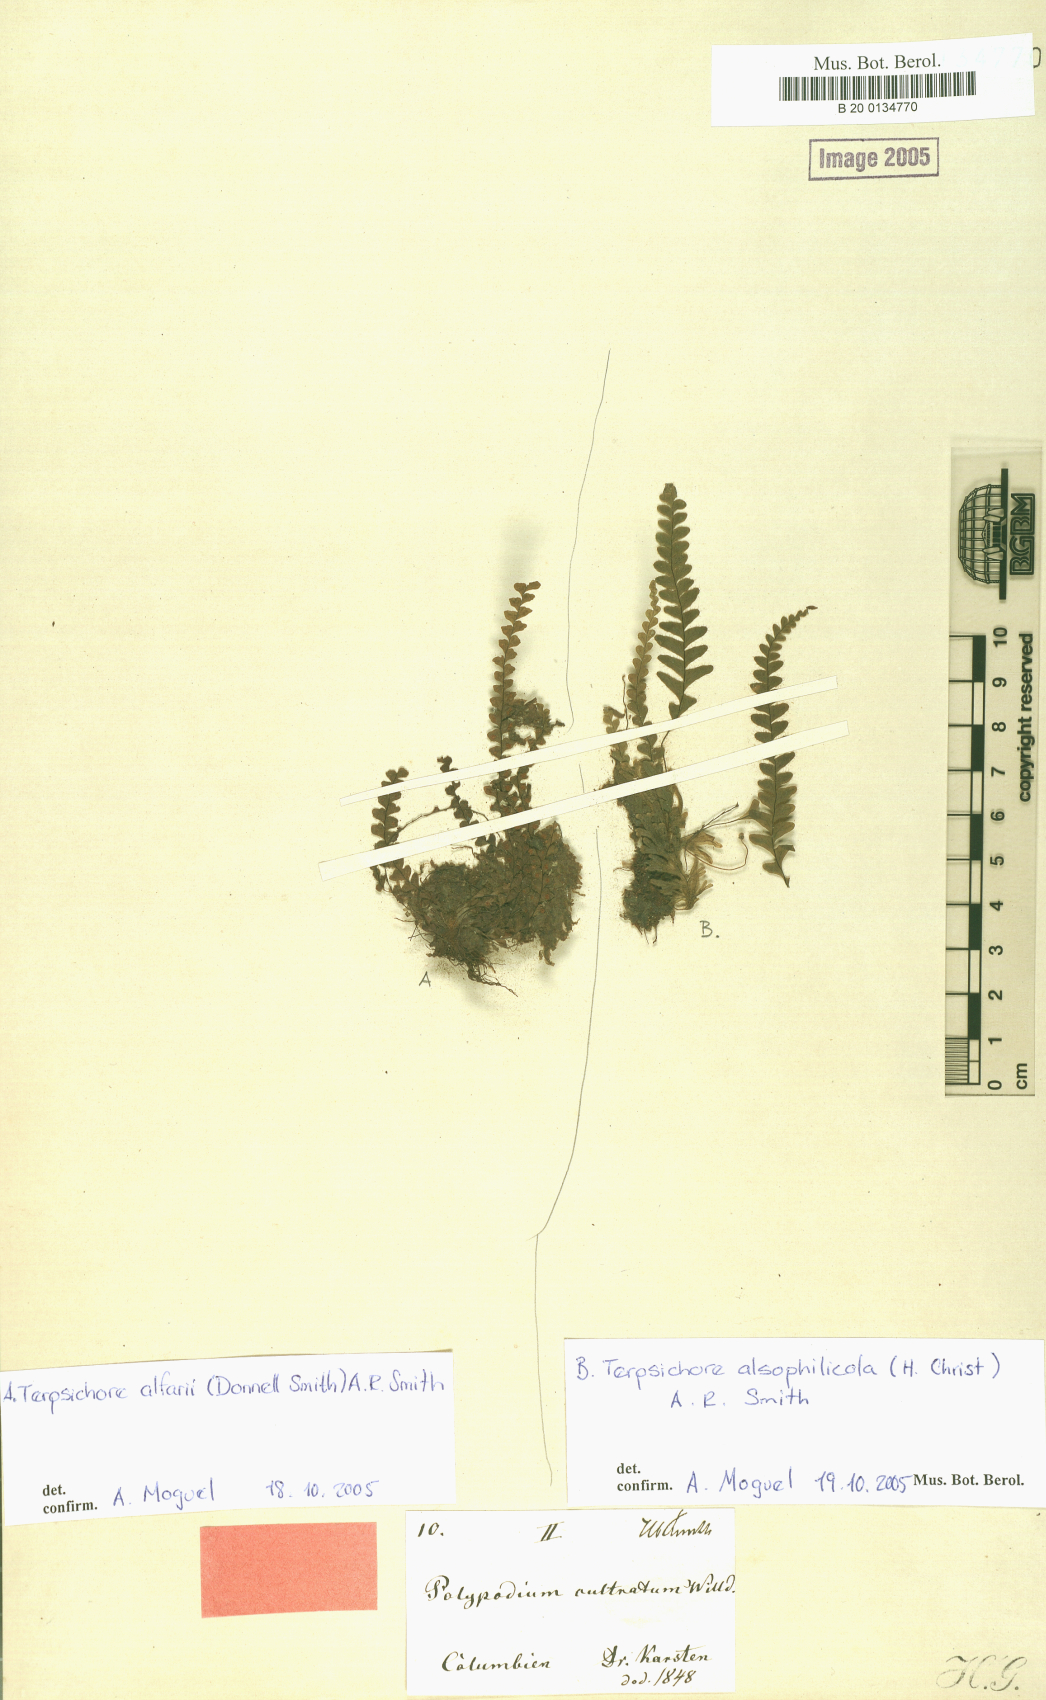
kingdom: Plantae
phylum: Tracheophyta
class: Polypodiopsida
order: Polypodiales
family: Polypodiaceae
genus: Terpsichore
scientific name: Terpsichore alsophilicola
